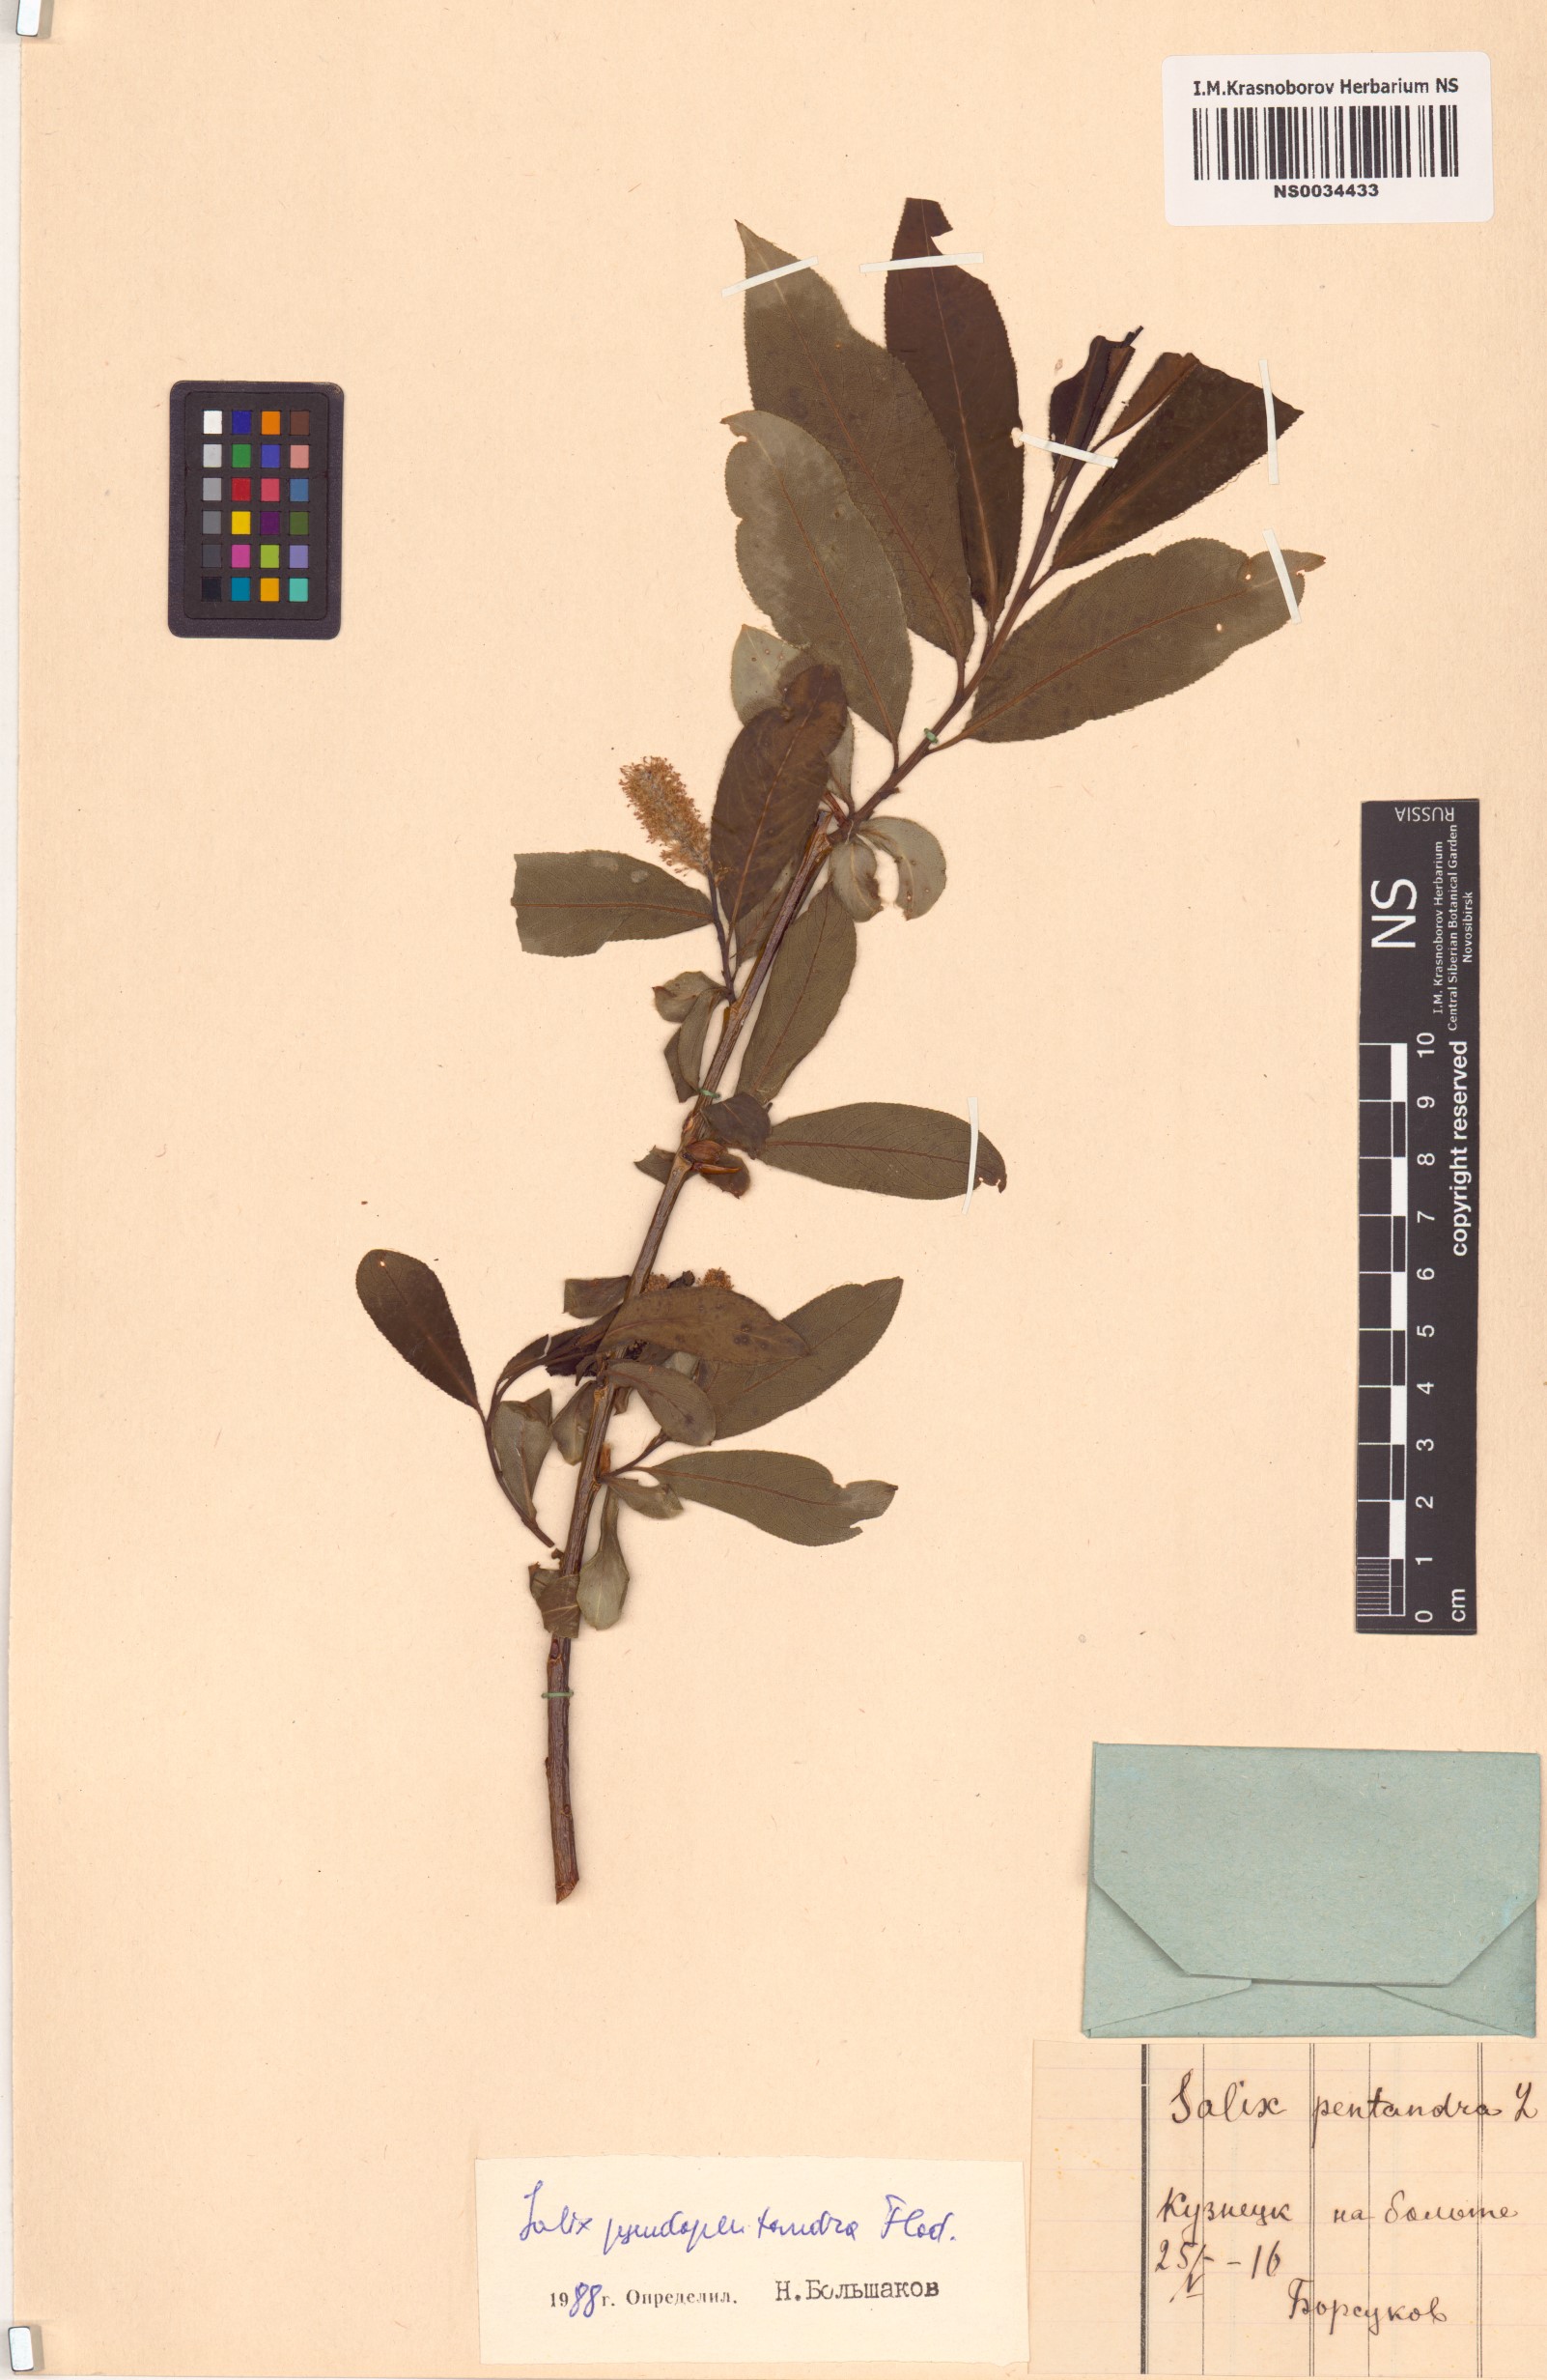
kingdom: Plantae
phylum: Tracheophyta
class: Magnoliopsida
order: Malpighiales
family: Salicaceae
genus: Salix
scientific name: Salix pseudopentandra
